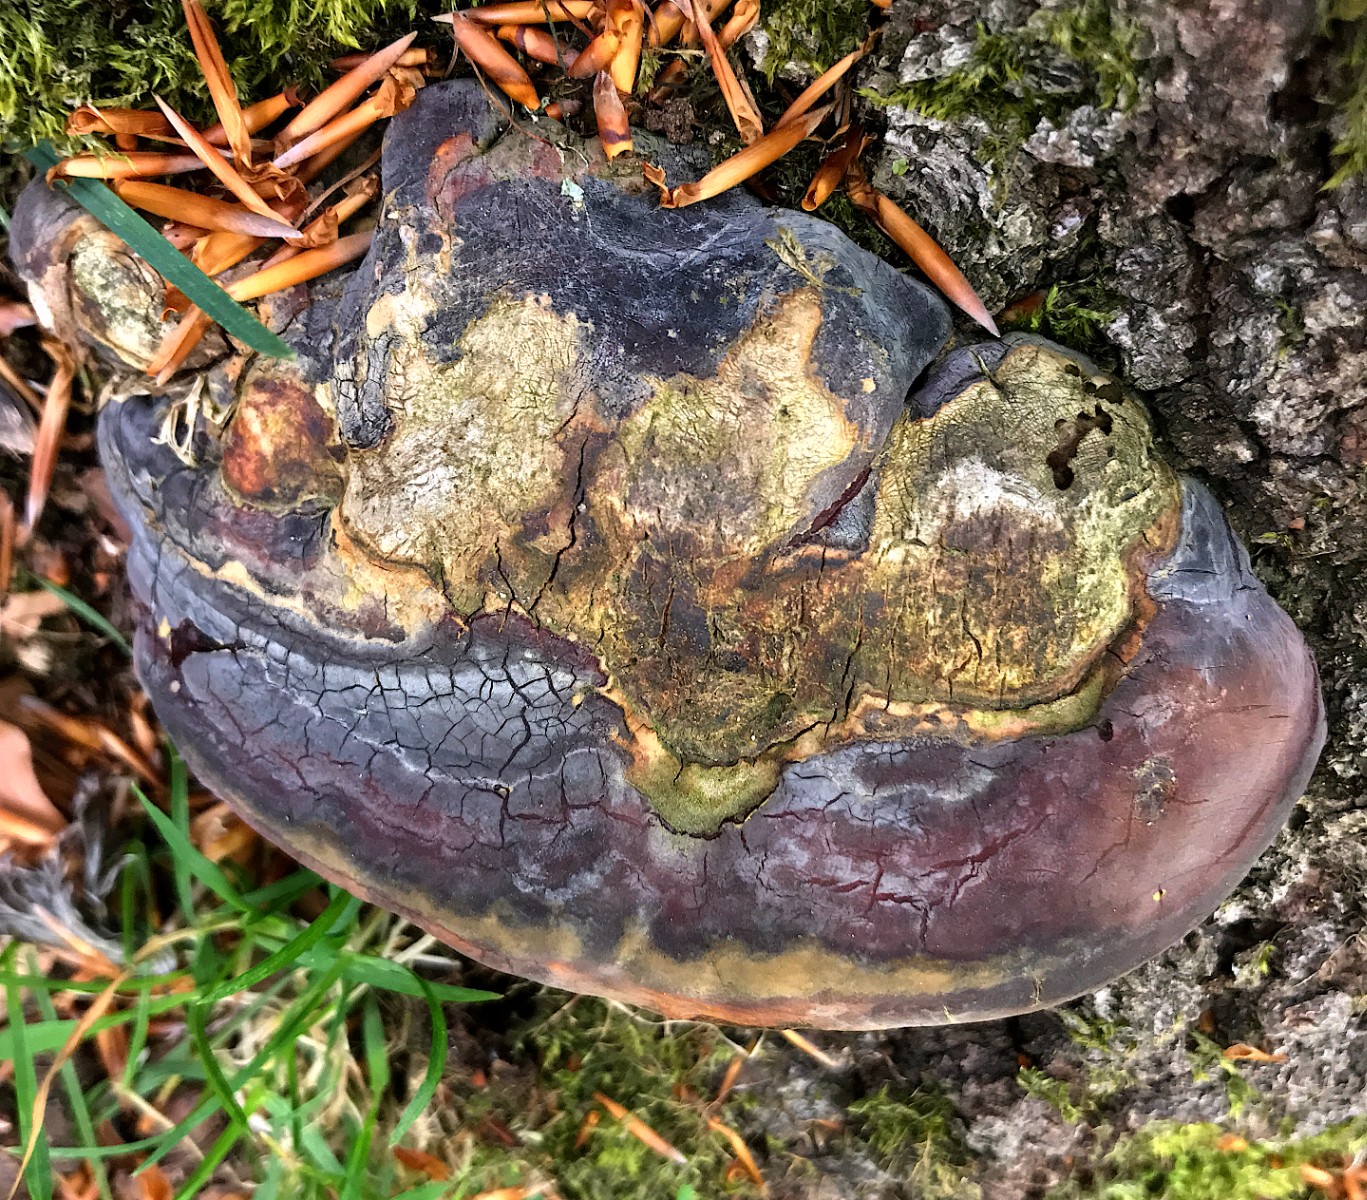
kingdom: Fungi
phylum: Basidiomycota
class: Agaricomycetes
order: Polyporales
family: Polyporaceae
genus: Ganoderma
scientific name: Ganoderma pfeifferi
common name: kobberrød lakporesvamp
